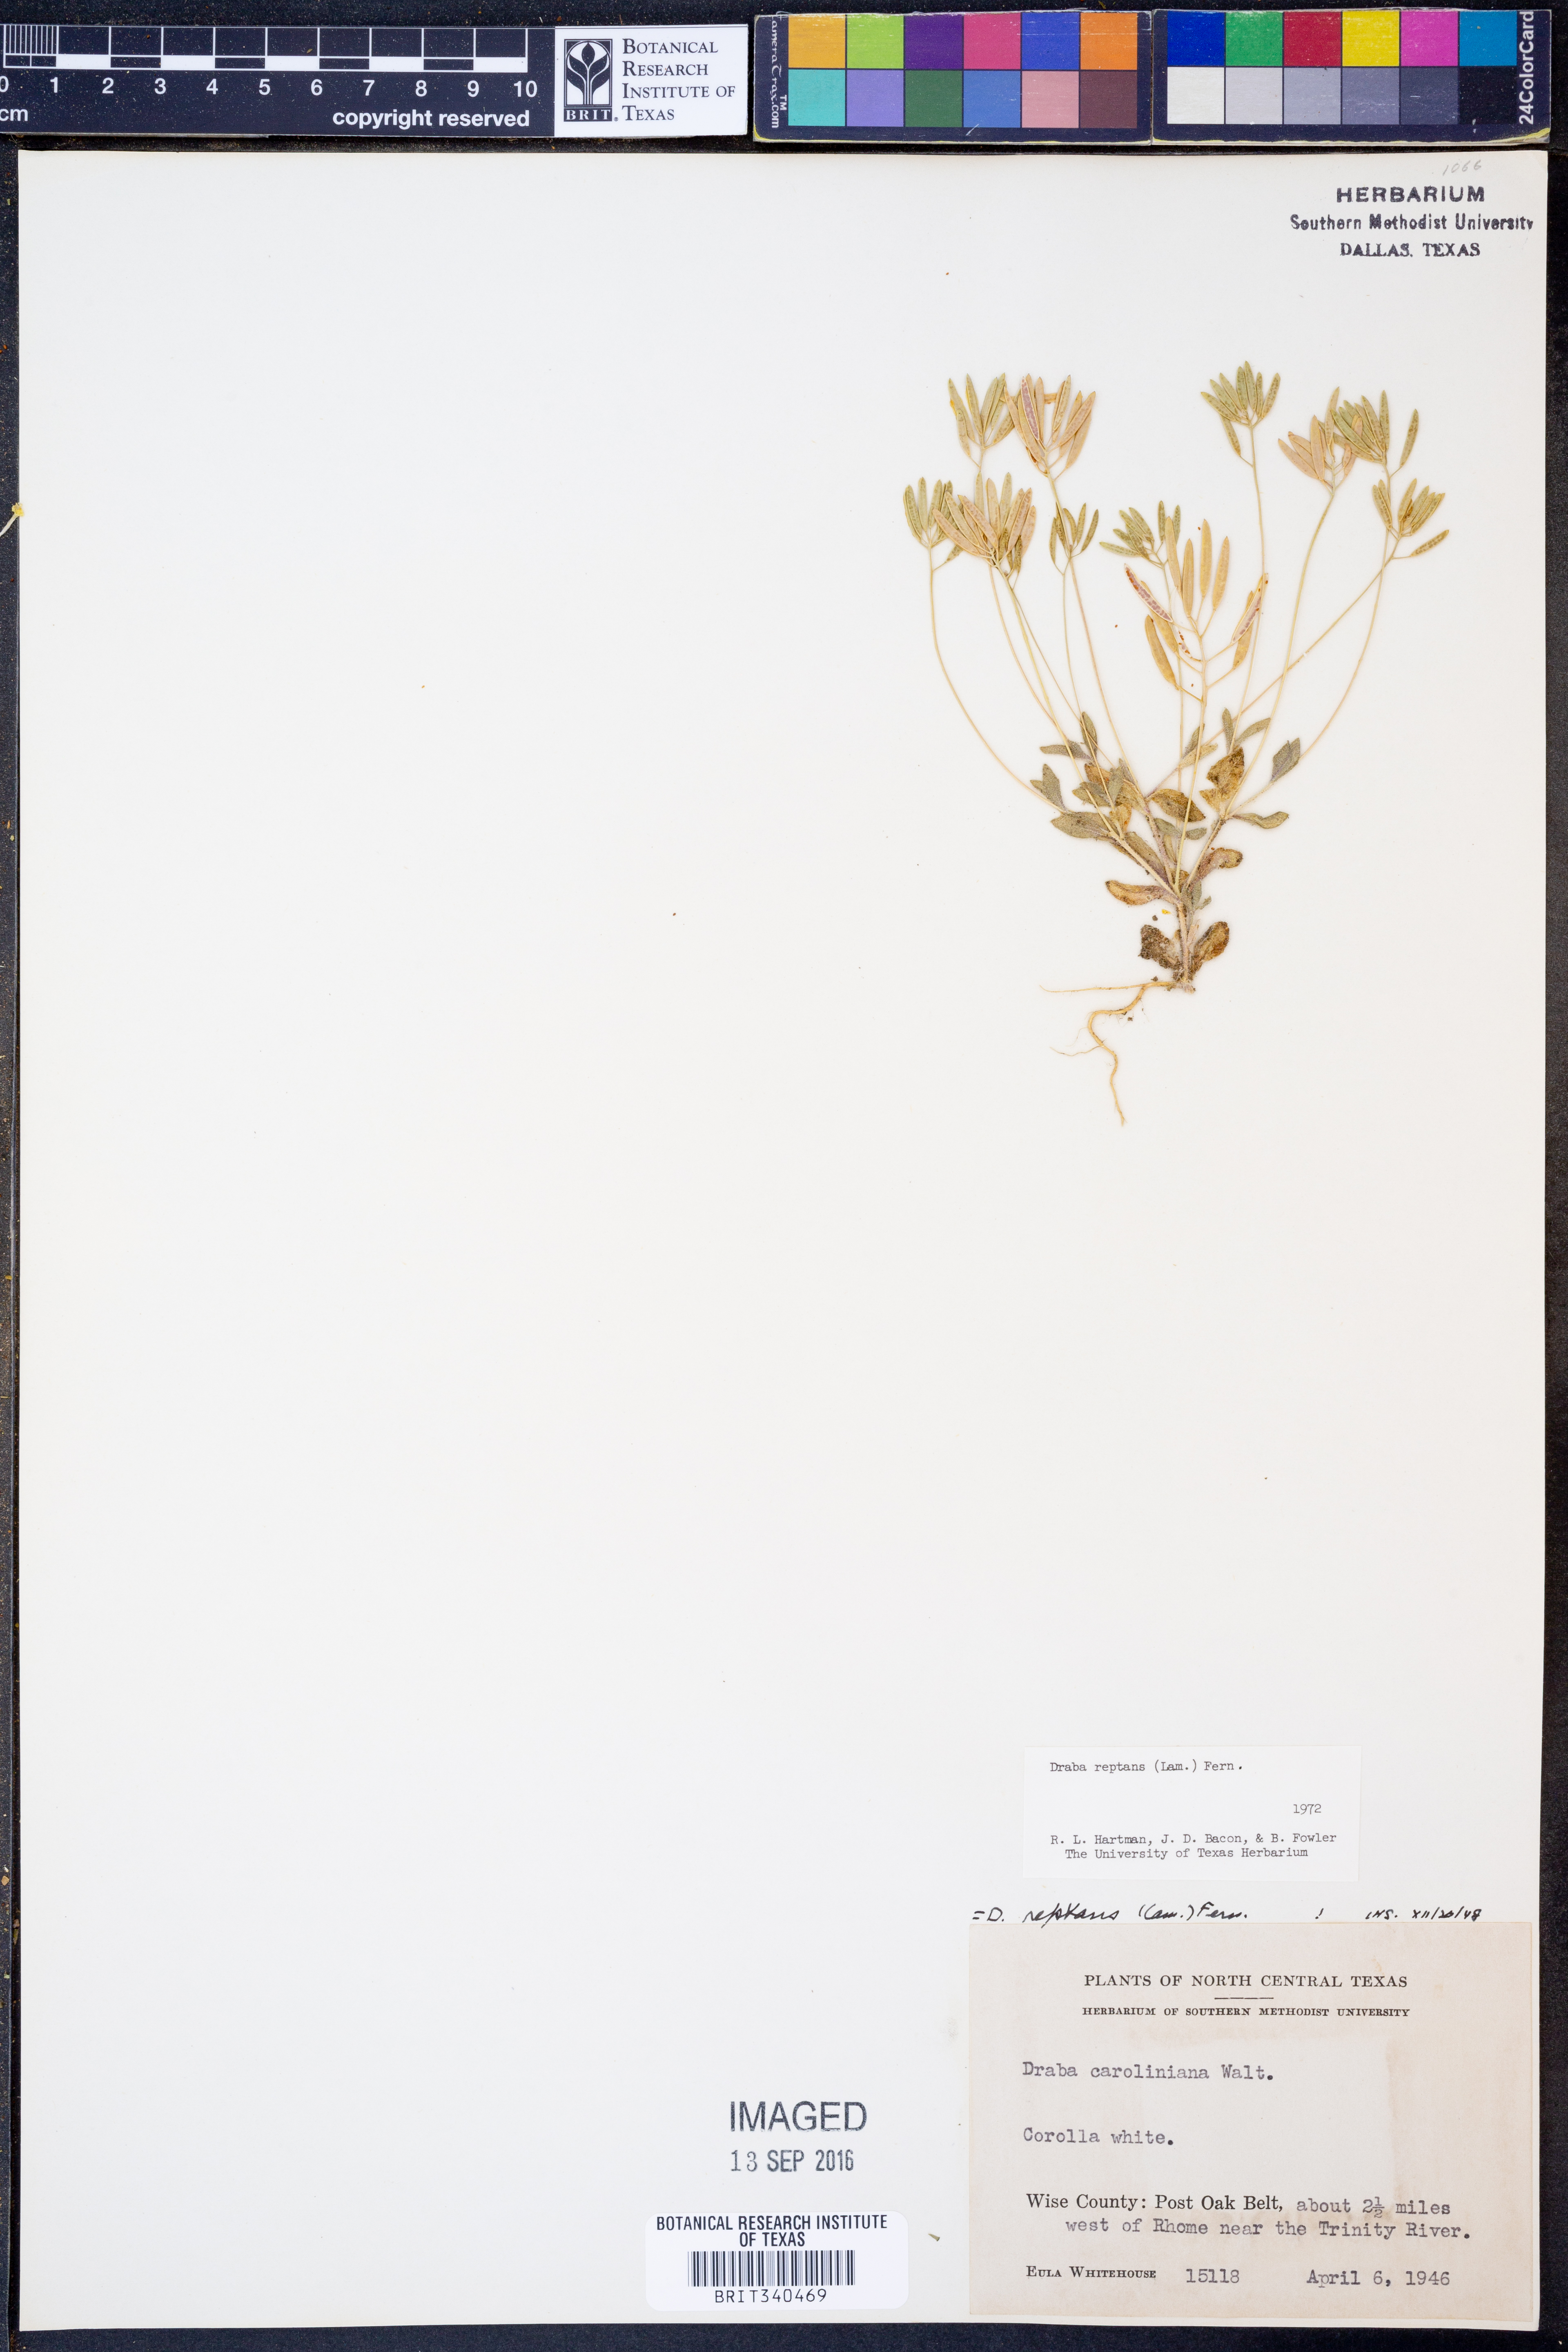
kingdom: Plantae
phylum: Tracheophyta
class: Magnoliopsida
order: Brassicales
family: Brassicaceae
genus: Tomostima
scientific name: Tomostima reptans
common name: Carolina draba
